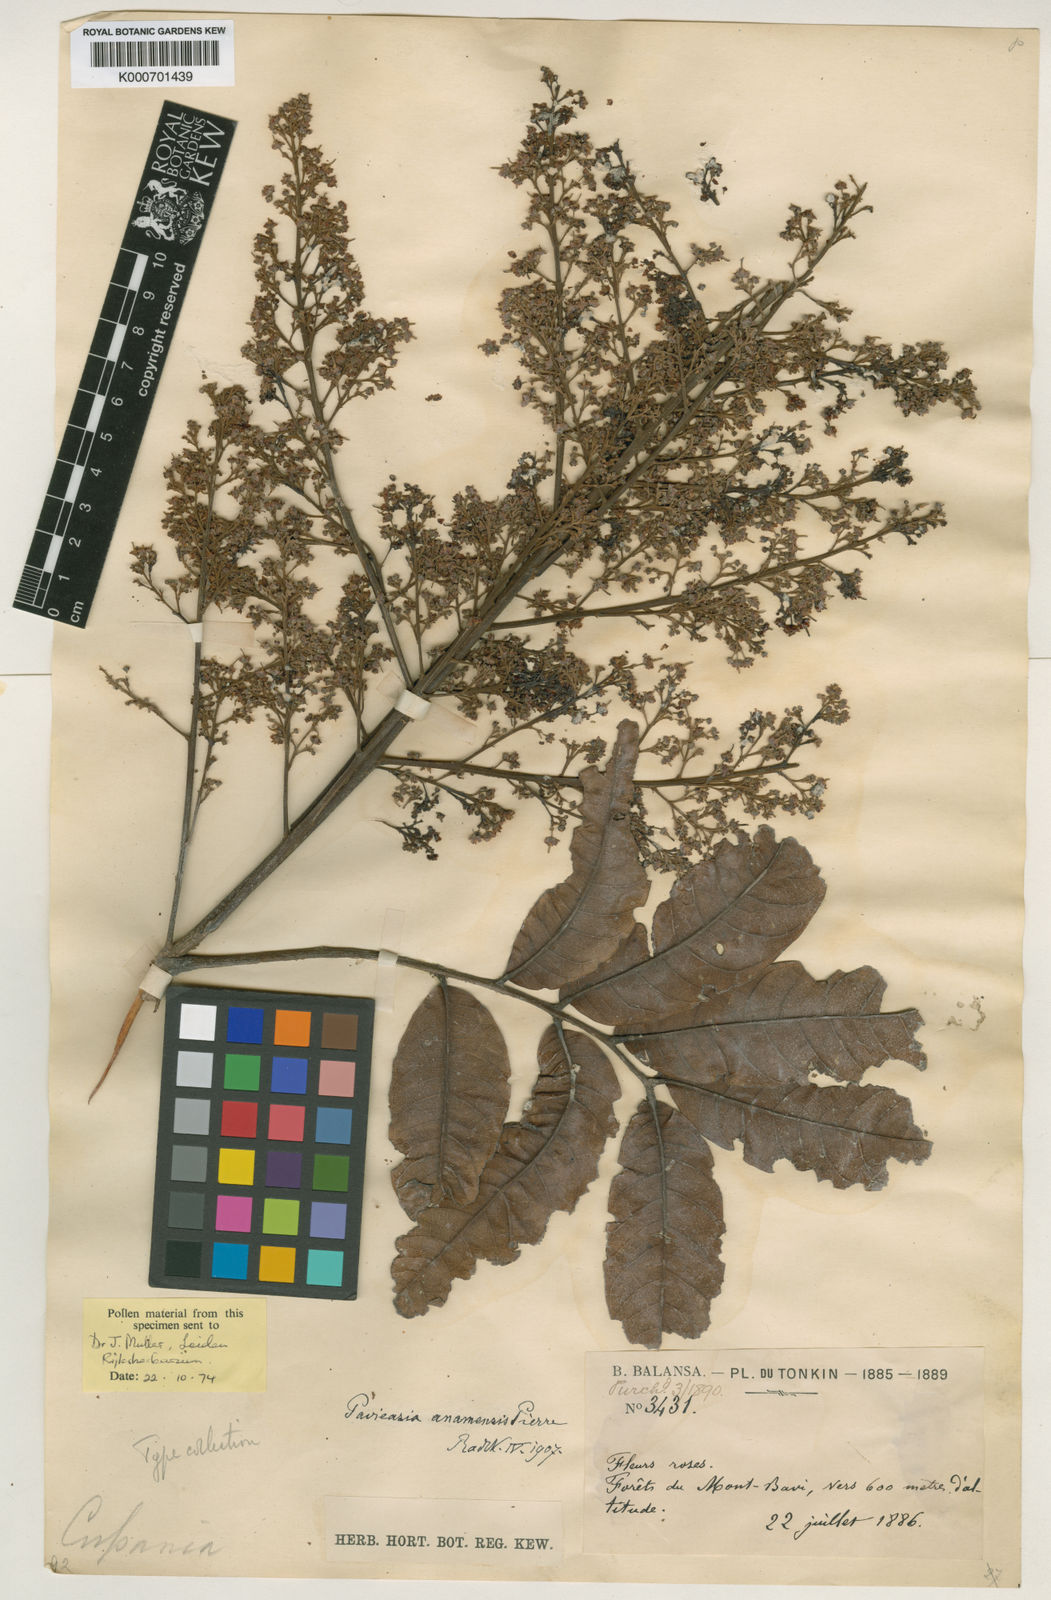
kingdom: Plantae
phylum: Tracheophyta
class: Magnoliopsida
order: Sapindales
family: Sapindaceae
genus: Pavieasia
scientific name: Pavieasia anamensis
